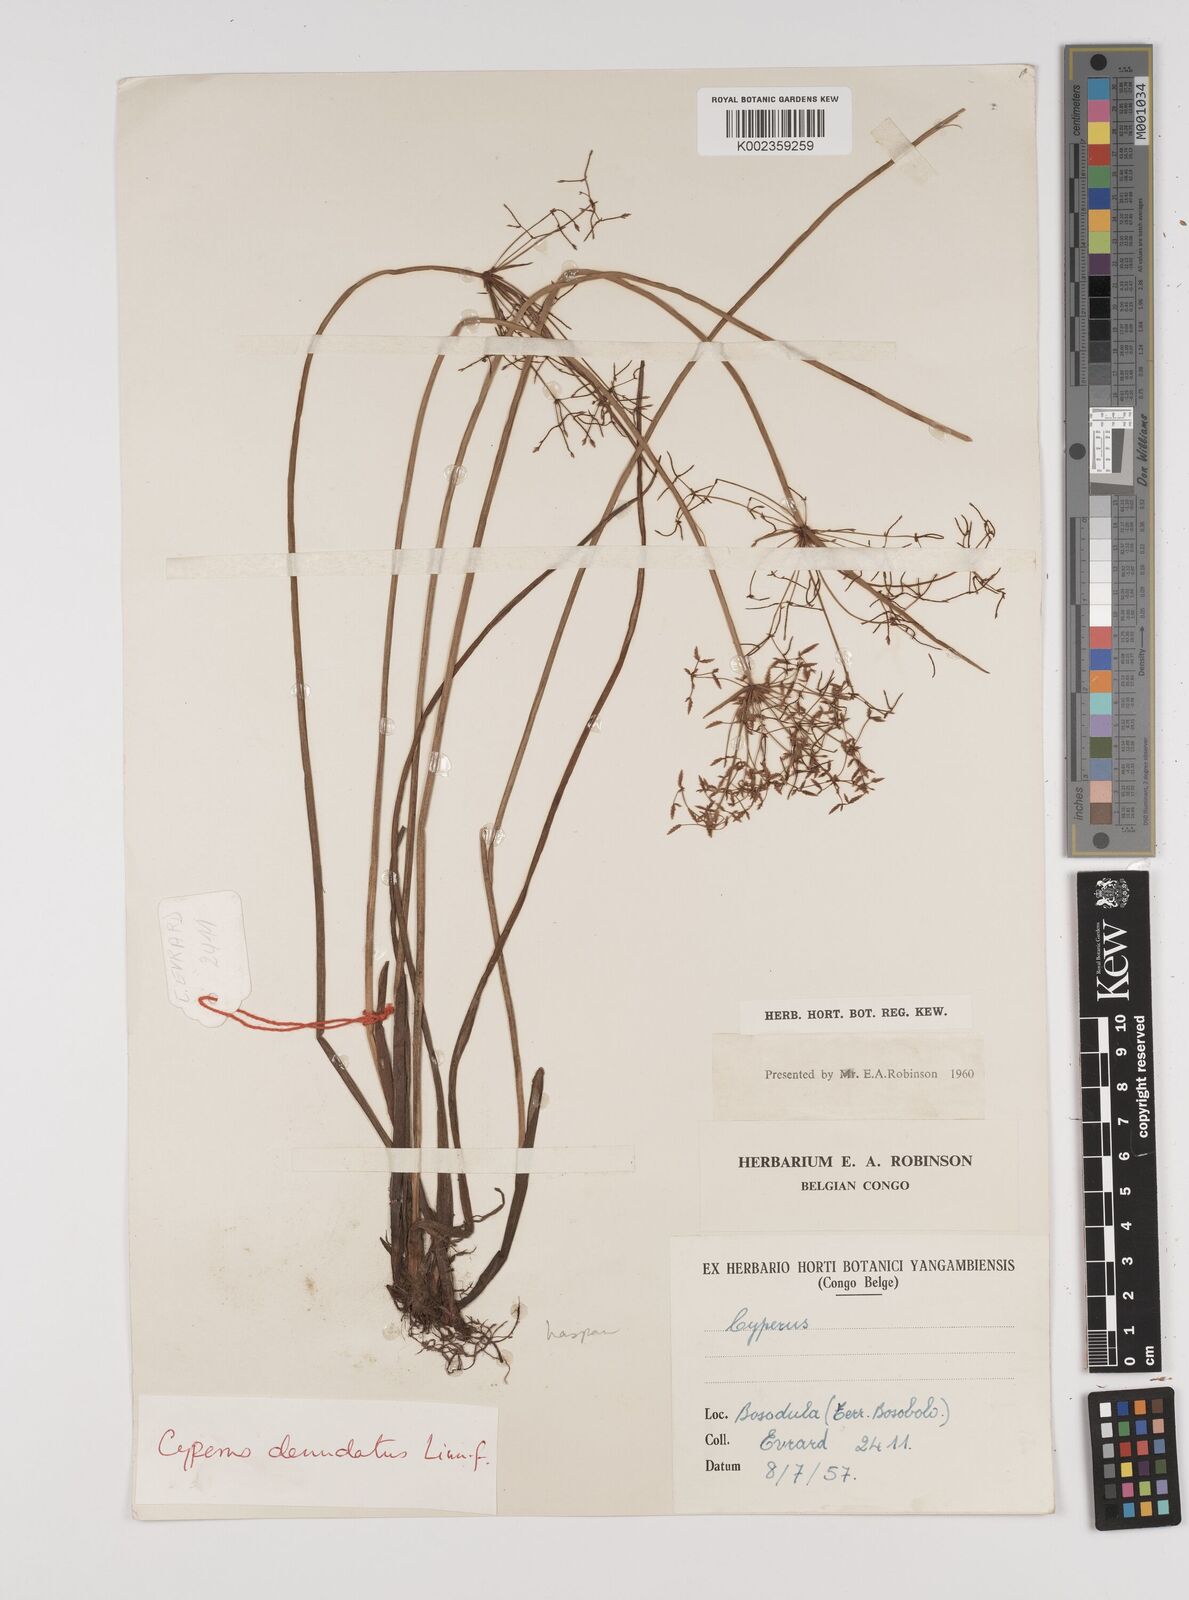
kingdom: Plantae
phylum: Tracheophyta
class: Liliopsida
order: Poales
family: Cyperaceae
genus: Cyperus
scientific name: Cyperus haspan
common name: Haspan flatsedge
